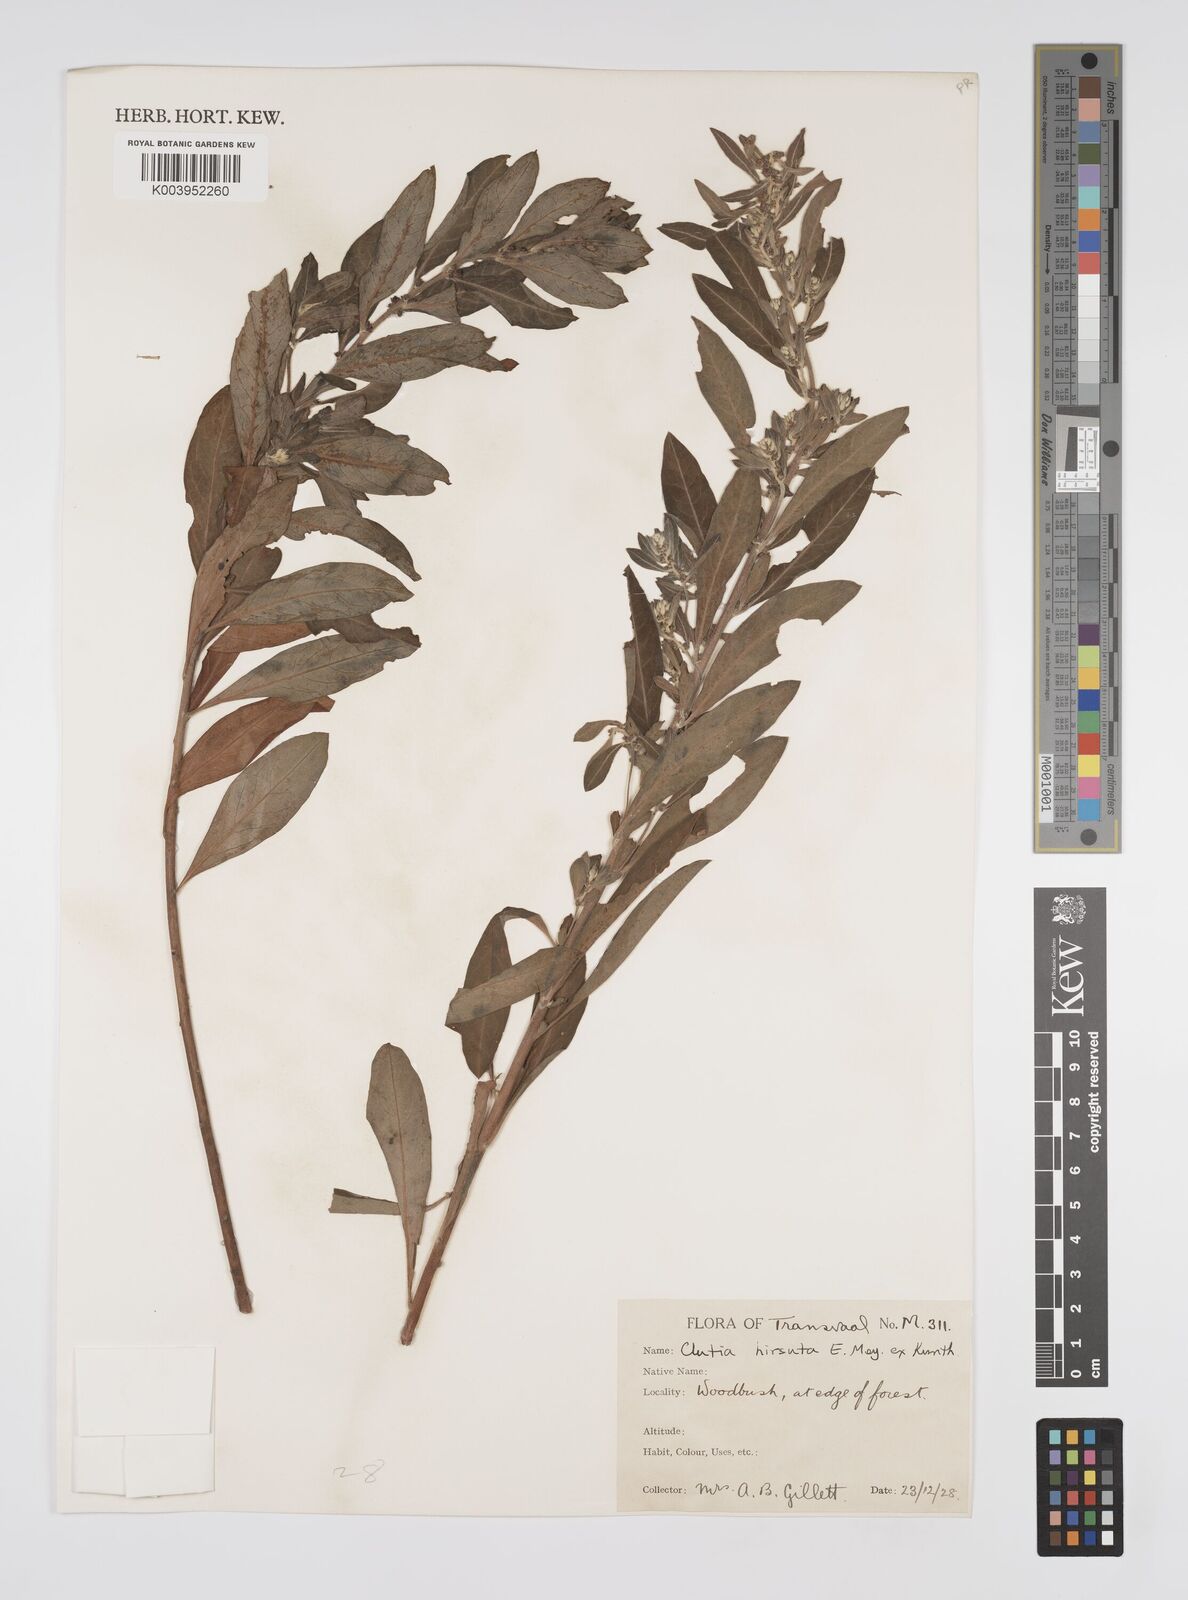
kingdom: Plantae
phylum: Tracheophyta
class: Magnoliopsida
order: Malpighiales
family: Peraceae
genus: Clutia
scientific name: Clutia affinis
